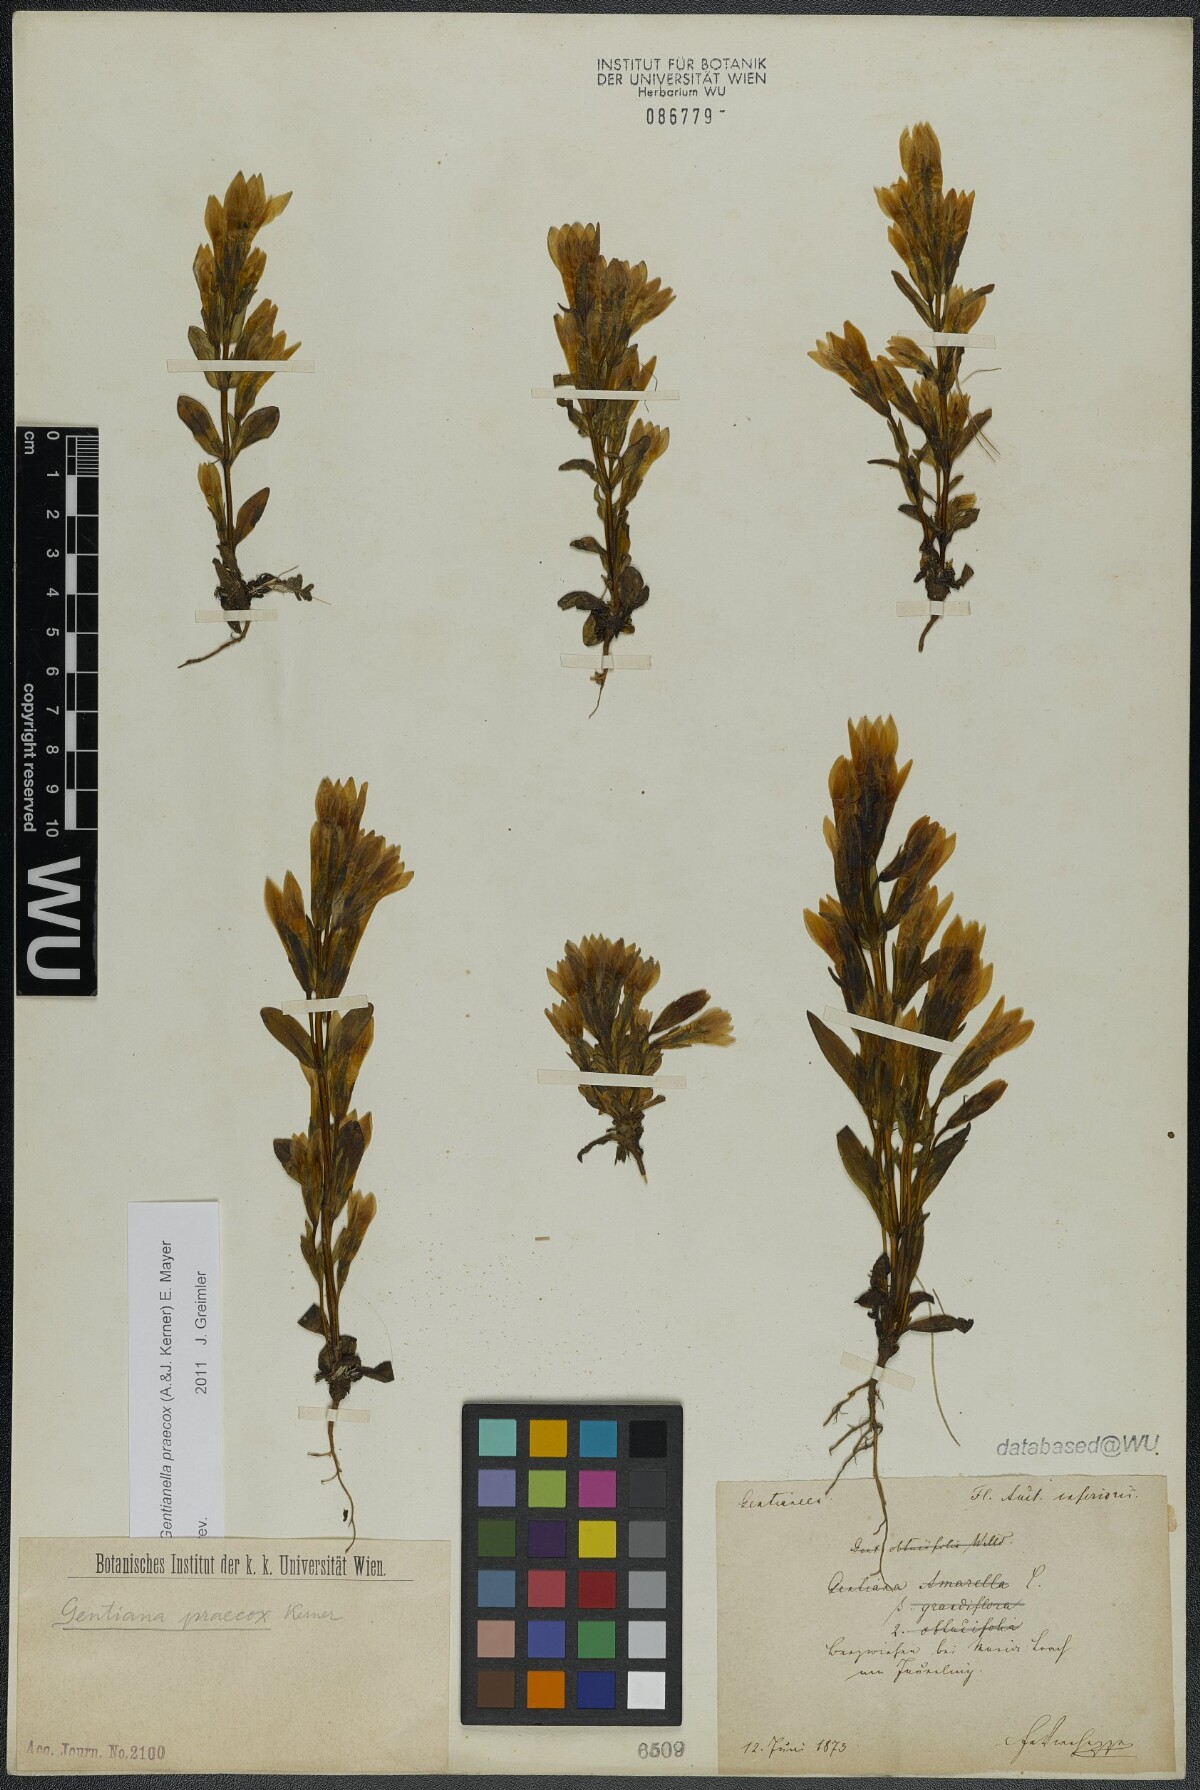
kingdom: Plantae
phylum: Tracheophyta
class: Magnoliopsida
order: Gentianales
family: Gentianaceae
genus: Gentianella
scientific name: Gentianella praecox
